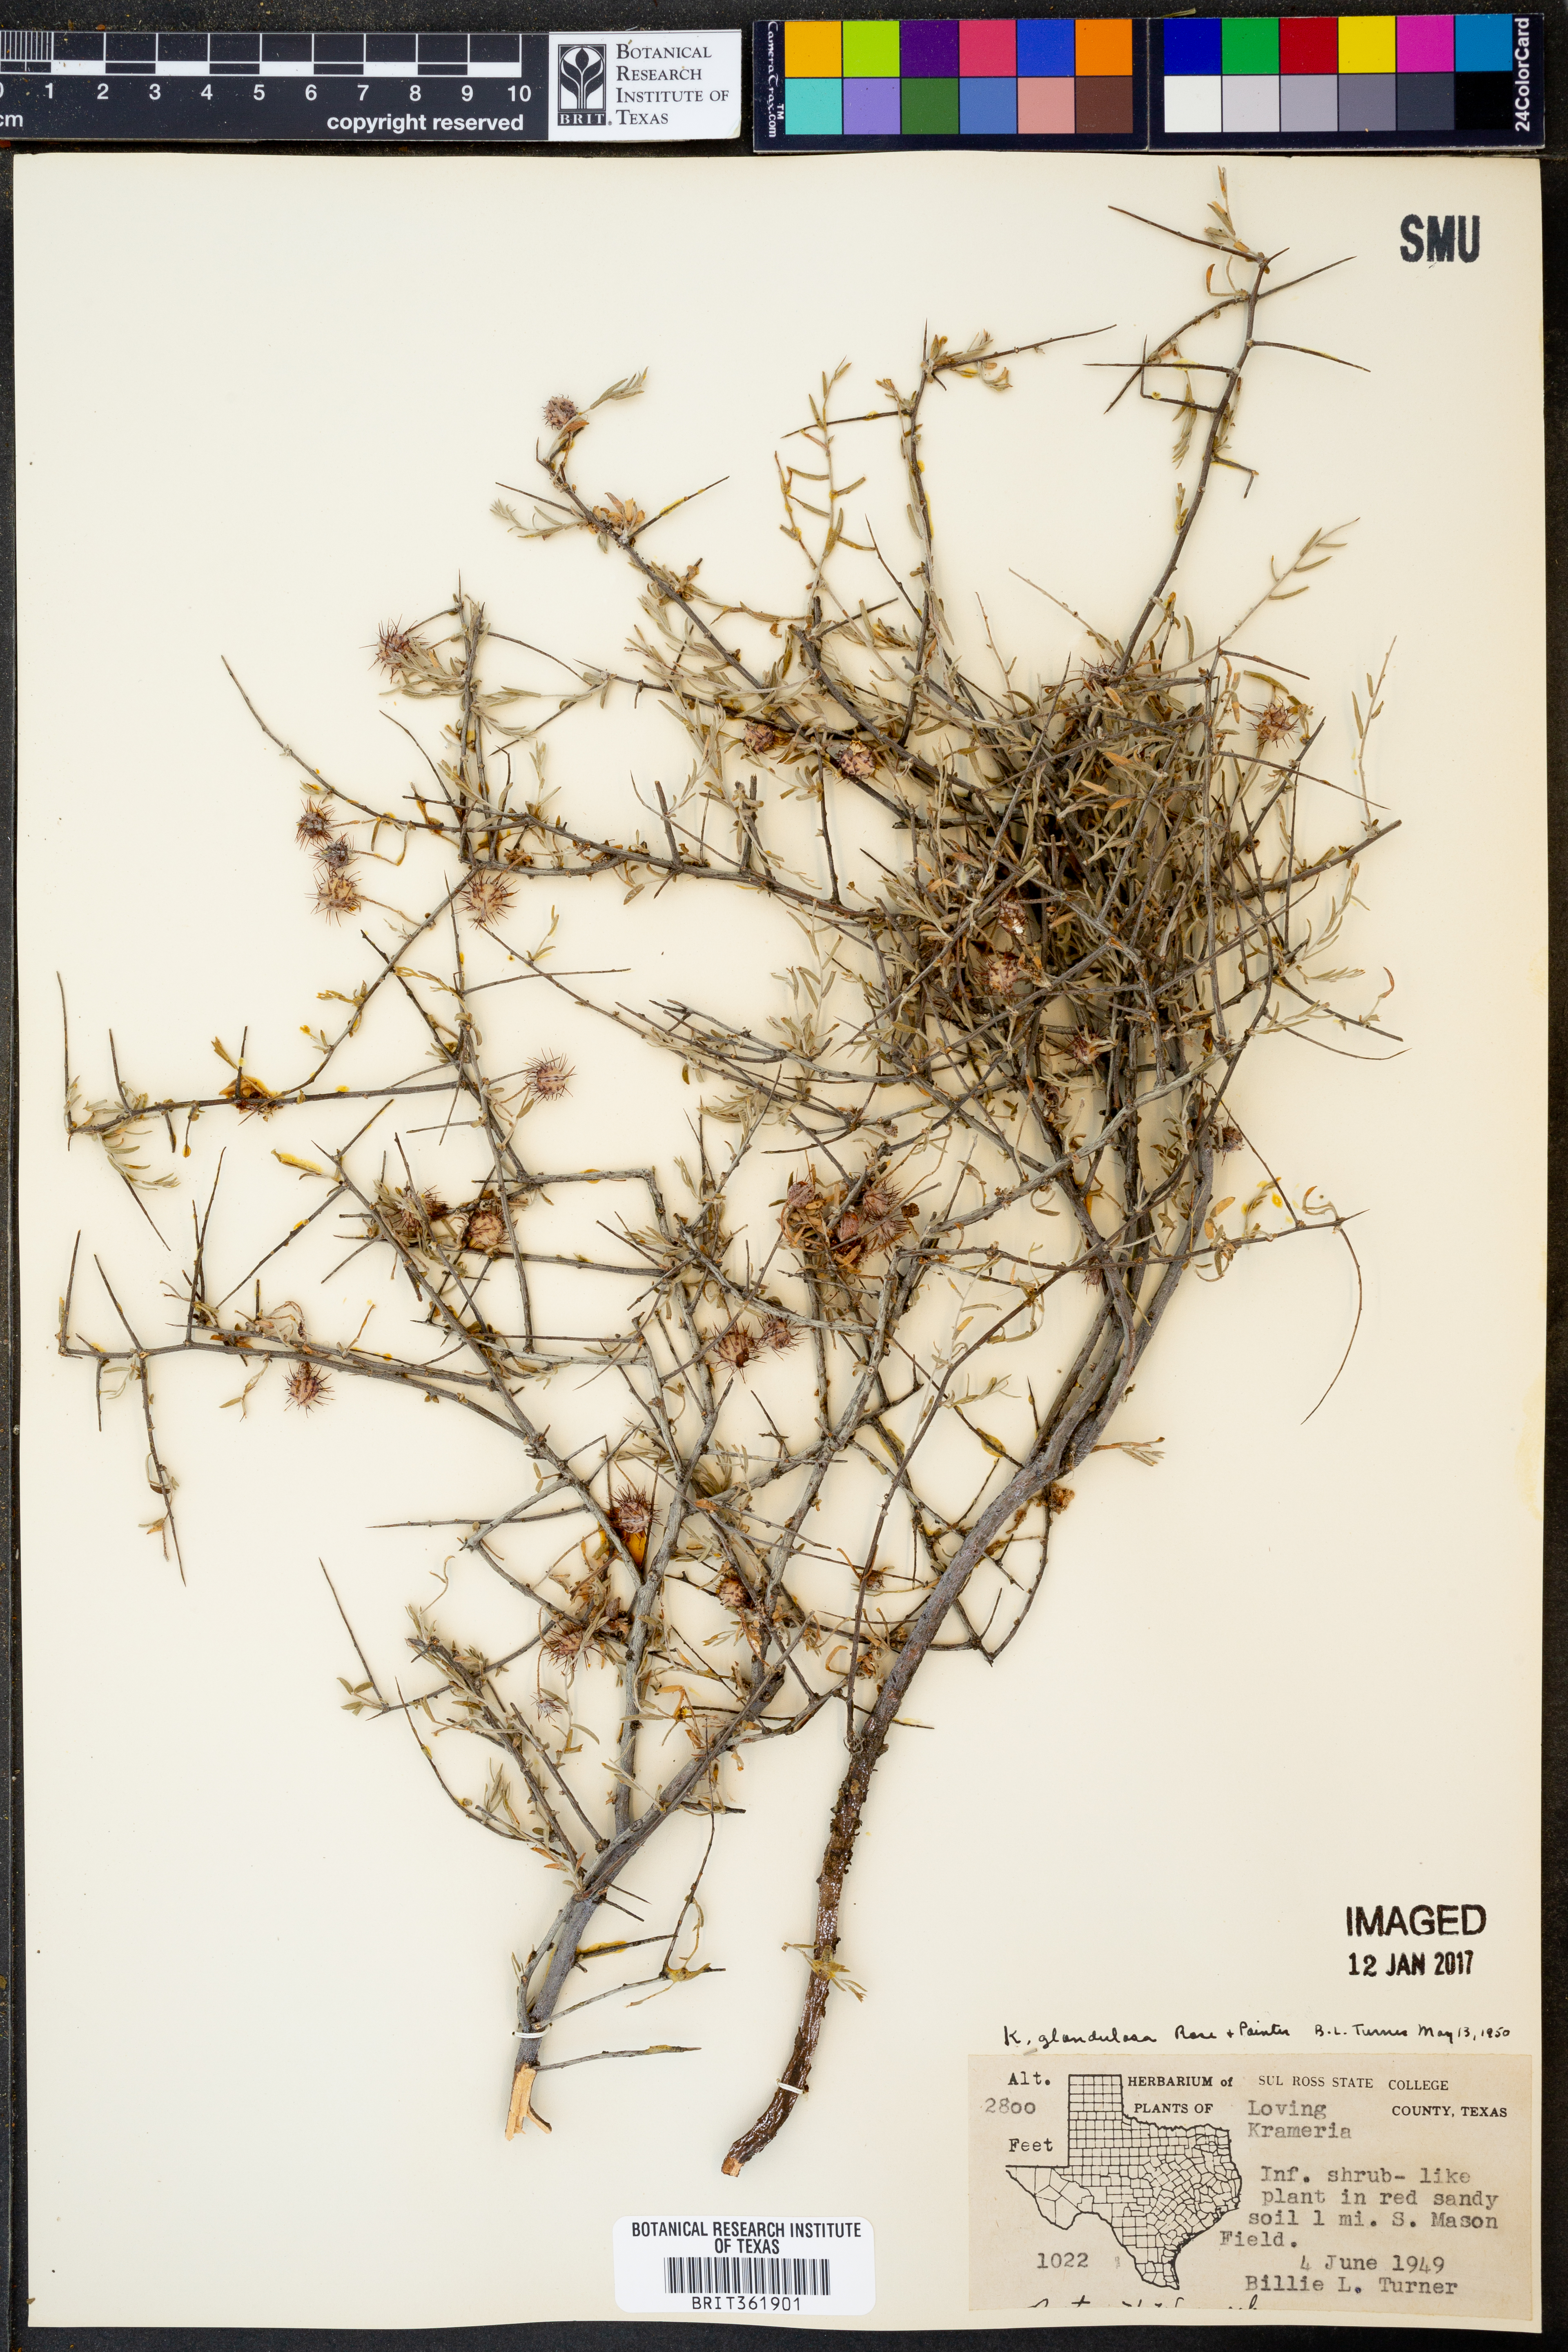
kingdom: Plantae
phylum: Tracheophyta
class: Magnoliopsida
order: Zygophyllales
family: Krameriaceae
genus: Krameria
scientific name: Krameria erecta
